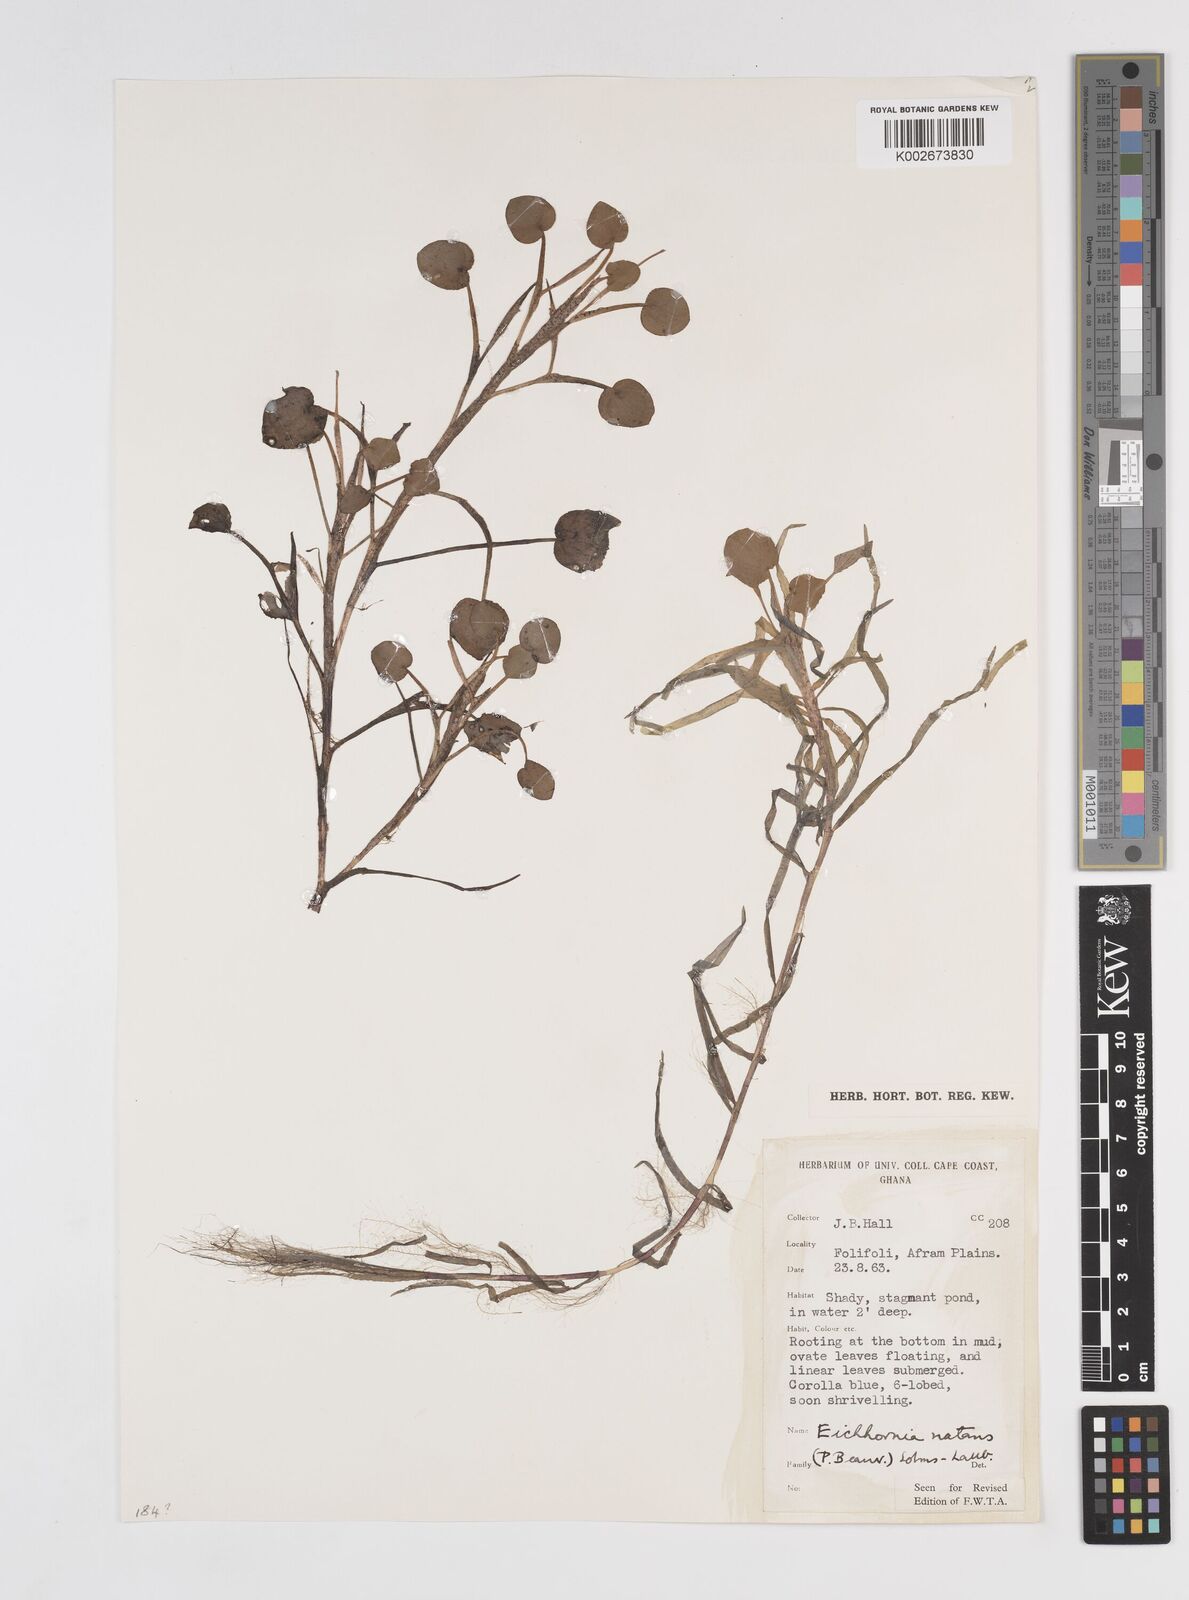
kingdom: Plantae
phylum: Tracheophyta
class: Liliopsida
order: Commelinales
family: Pontederiaceae
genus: Pontederia
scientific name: Pontederia diversifolia
